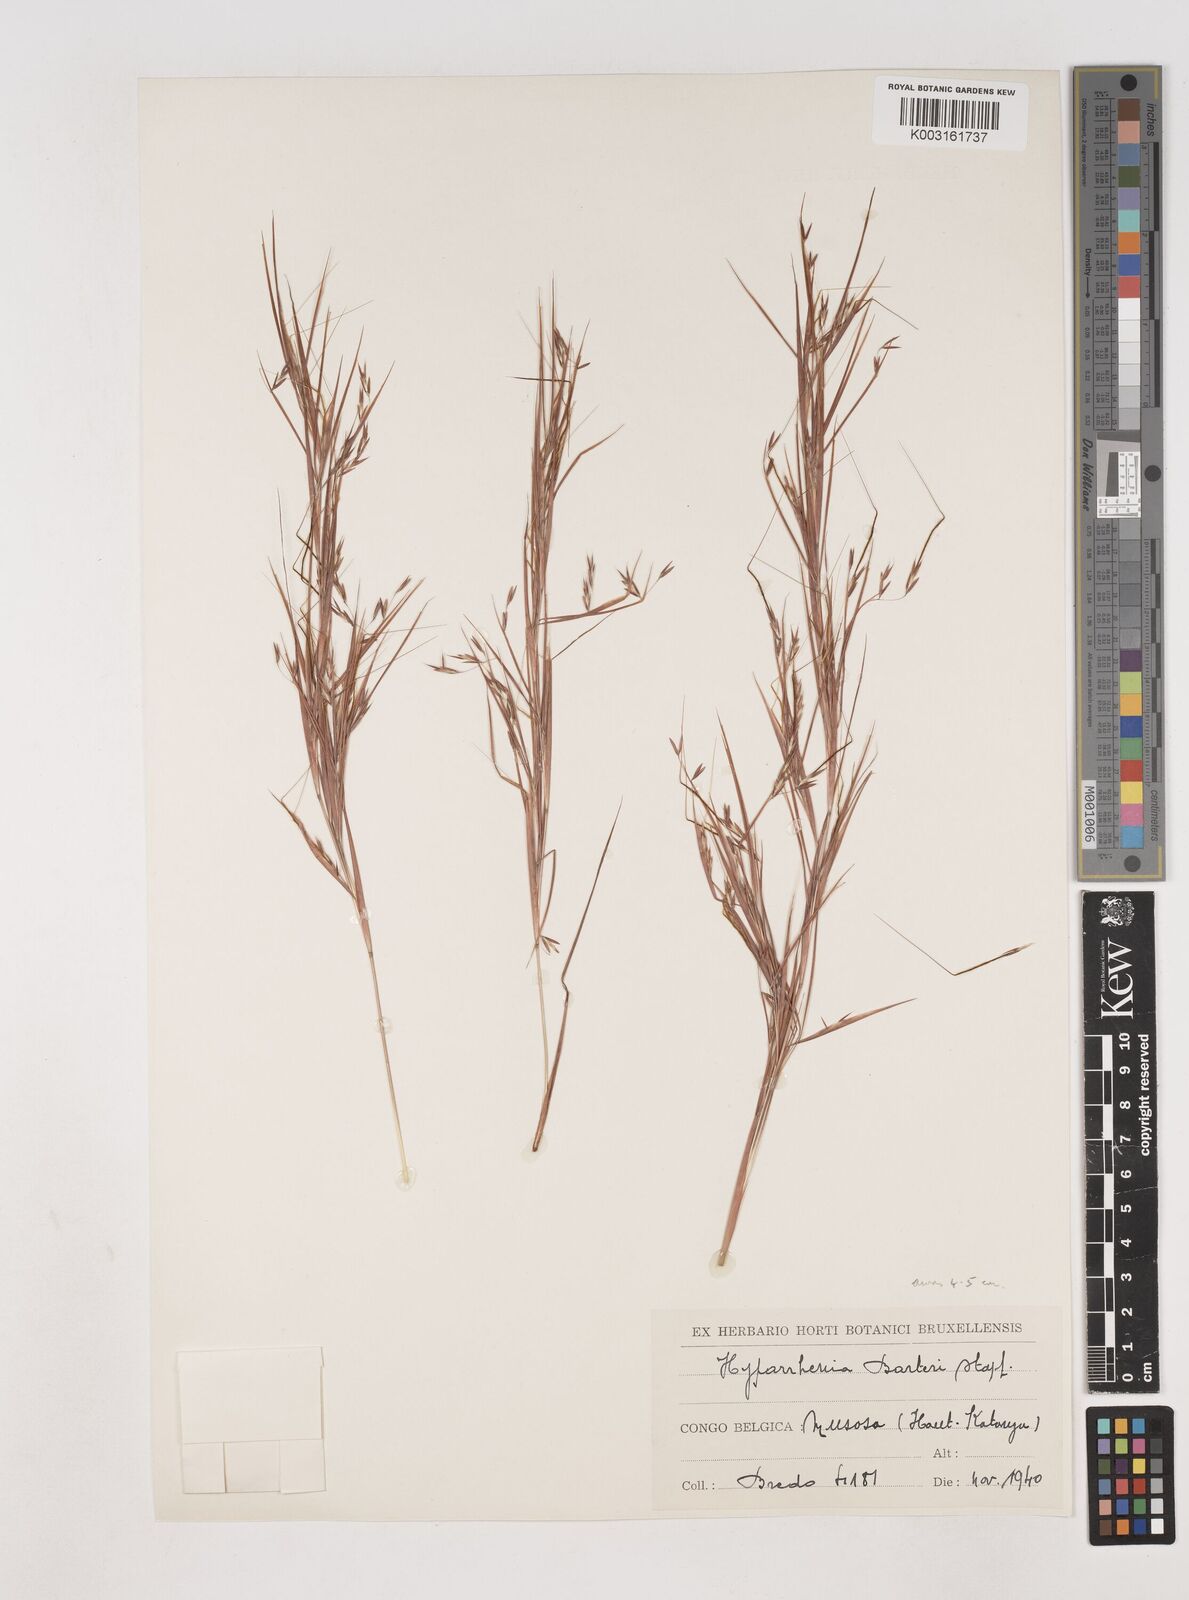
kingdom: Plantae
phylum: Tracheophyta
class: Liliopsida
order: Poales
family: Poaceae
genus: Hyparrhenia
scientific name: Hyparrhenia barteri
